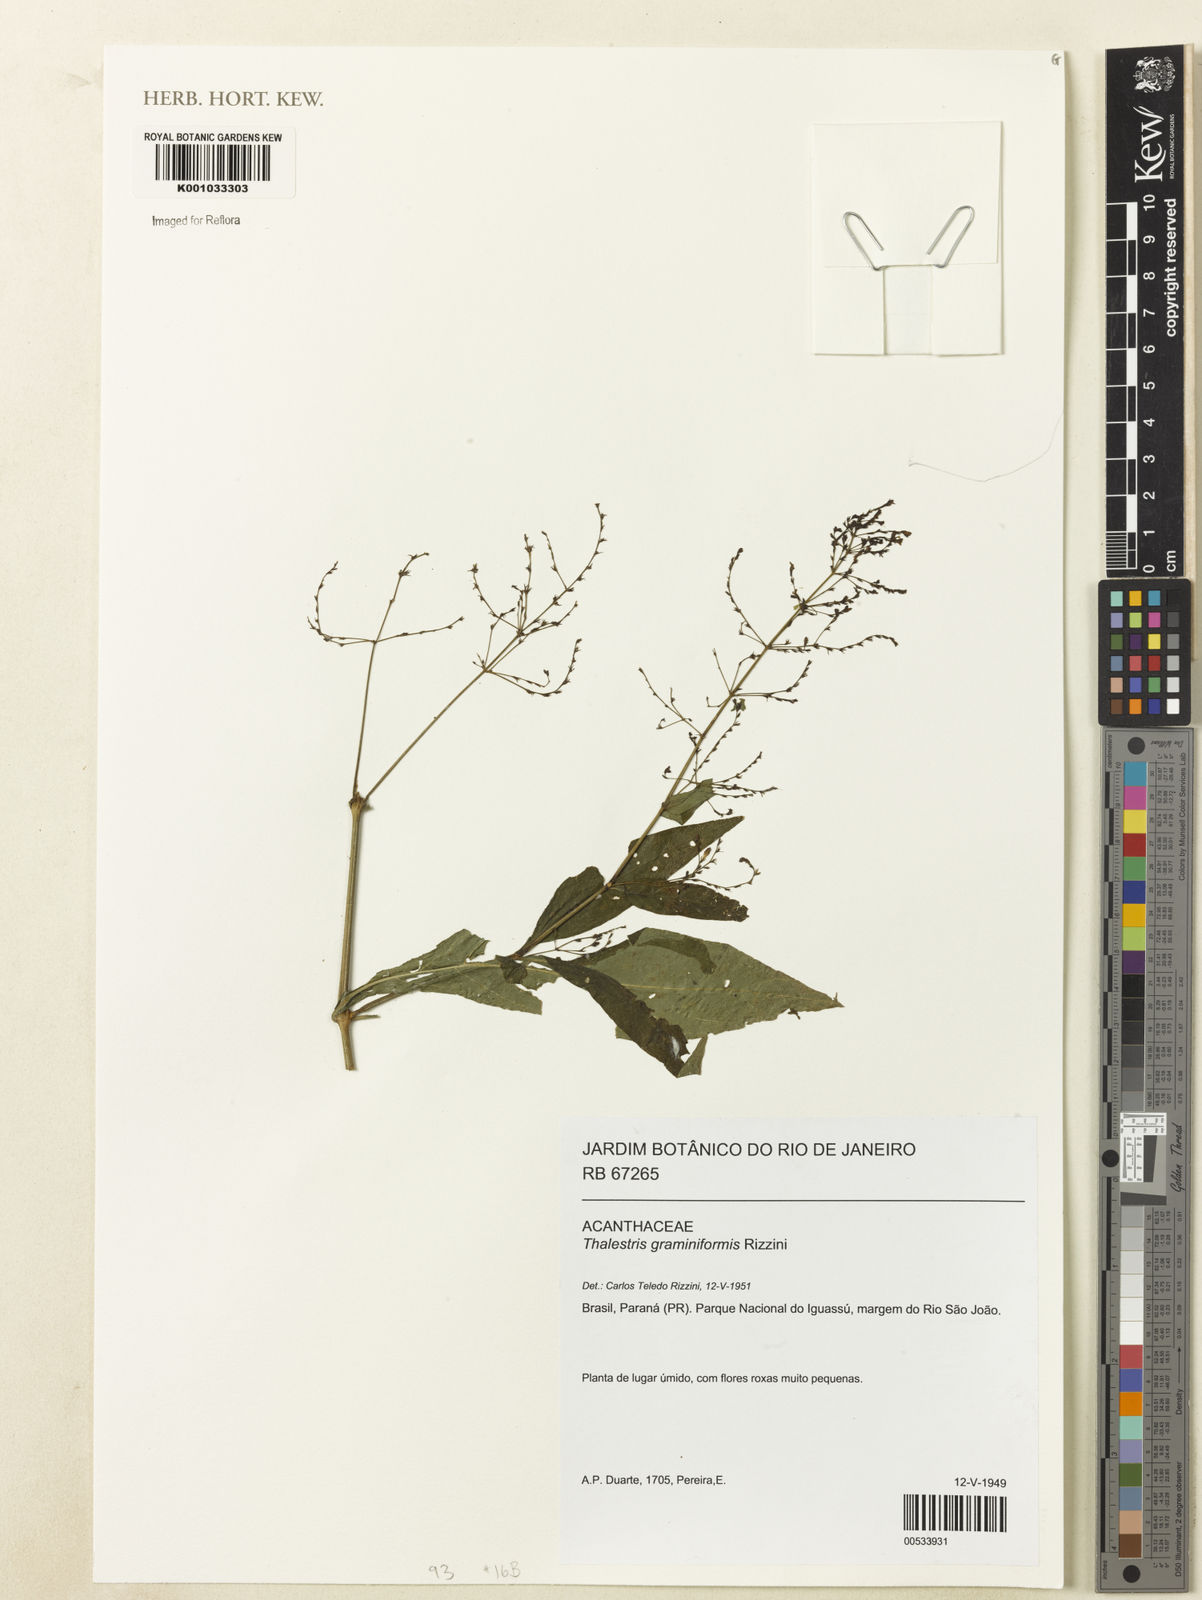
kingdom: Plantae
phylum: Tracheophyta
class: Magnoliopsida
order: Lamiales
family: Acanthaceae
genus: Dianthera
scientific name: Dianthera comata
